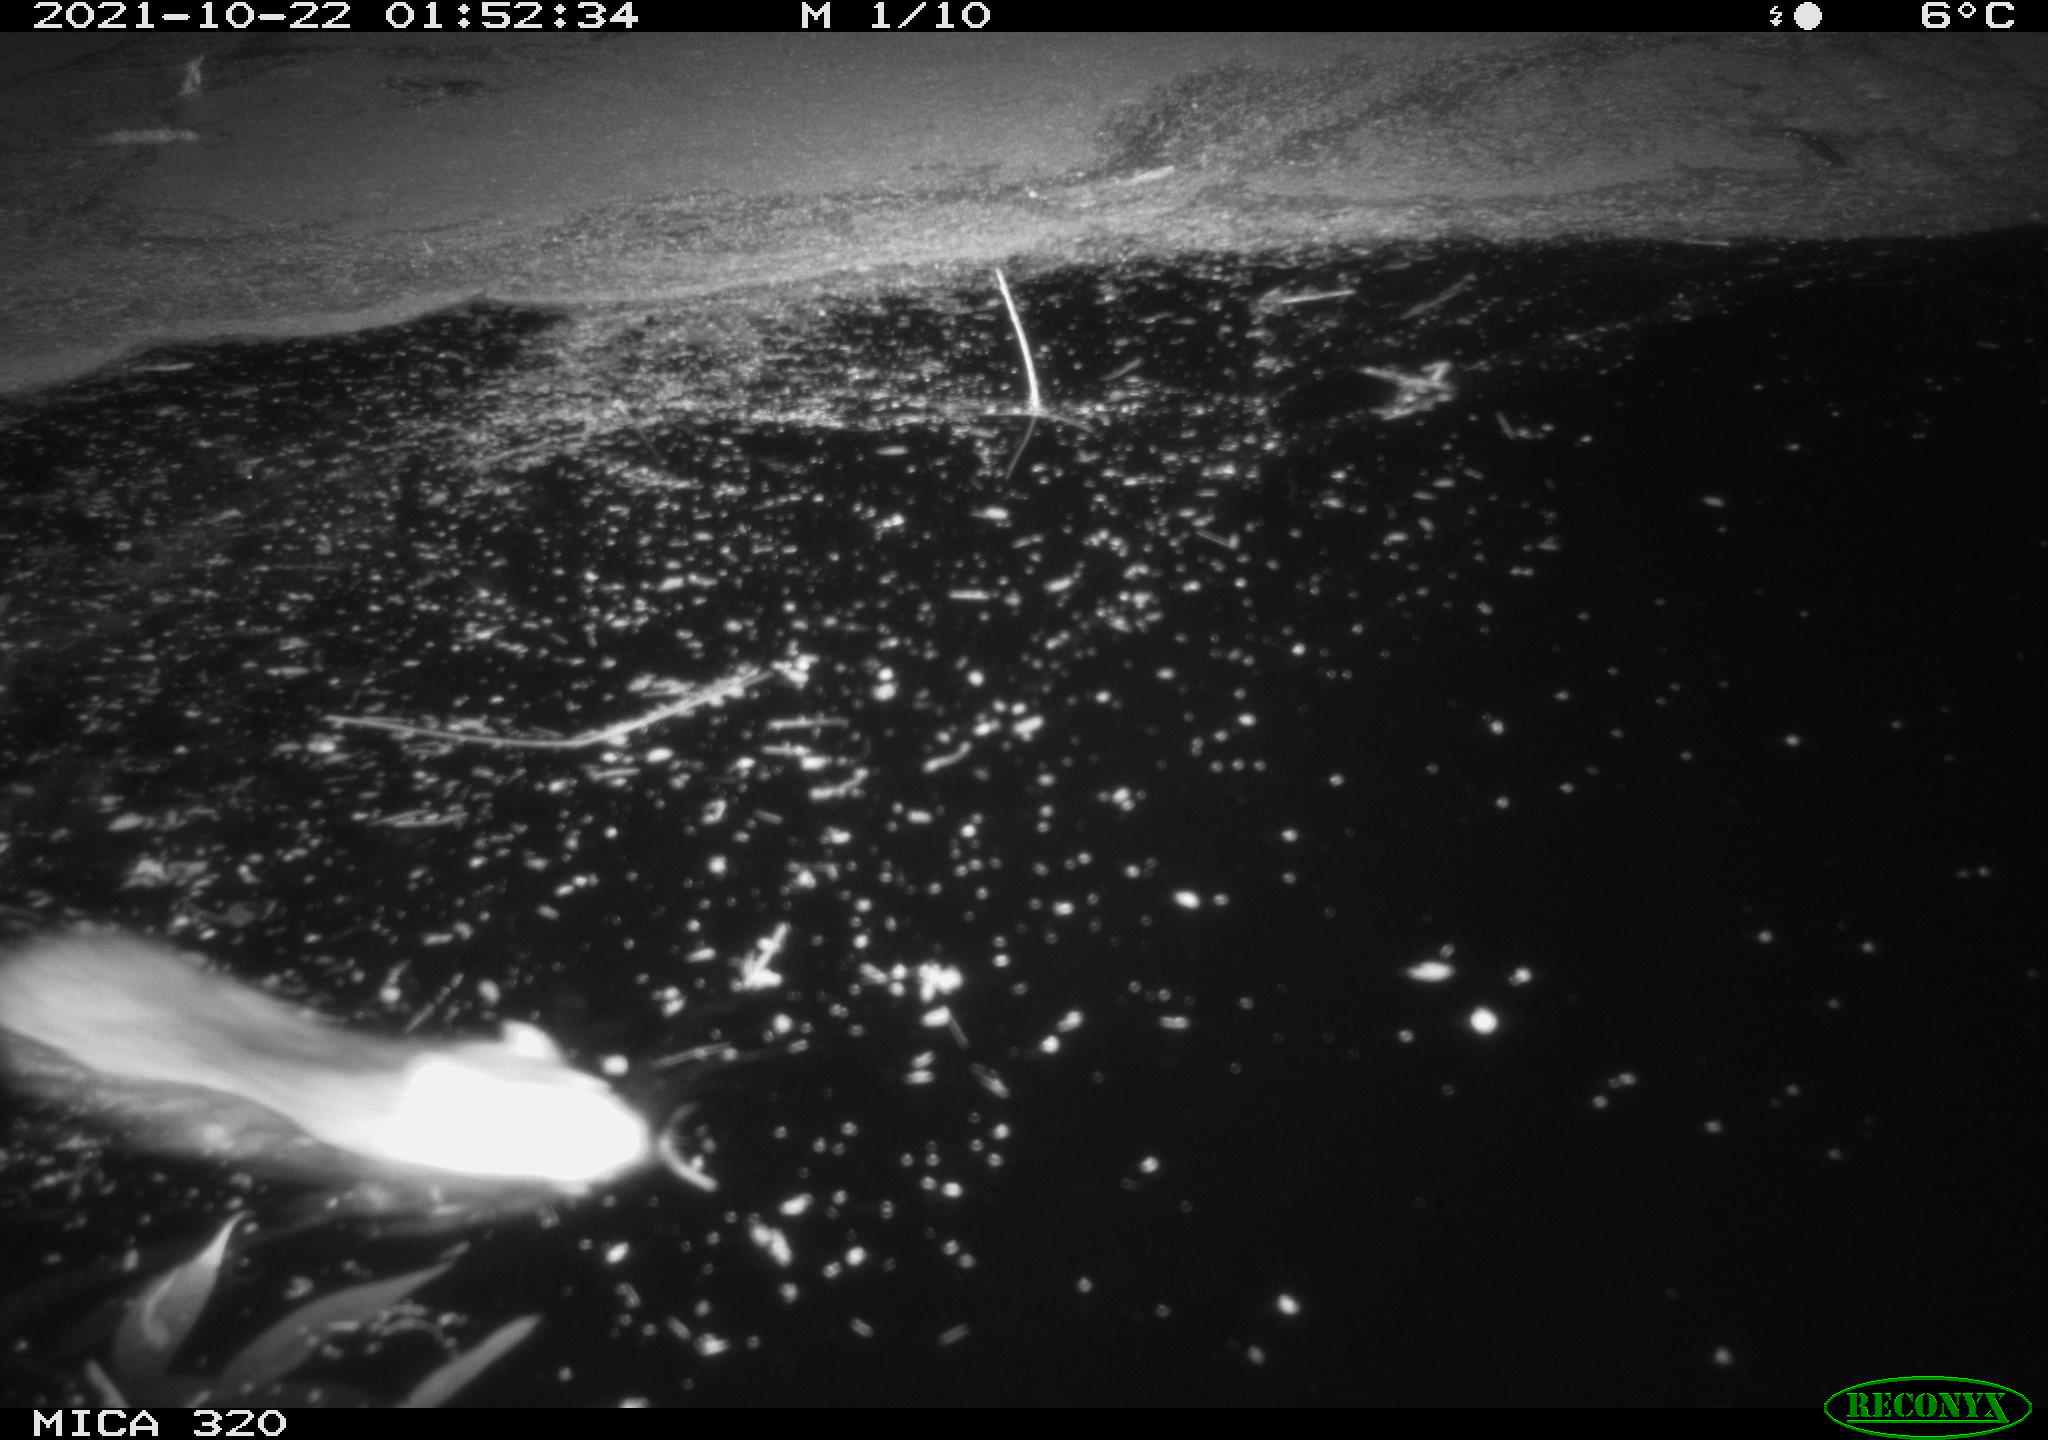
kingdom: Animalia
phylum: Chordata
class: Mammalia
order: Rodentia
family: Muridae
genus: Rattus
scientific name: Rattus norvegicus
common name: Brown rat
